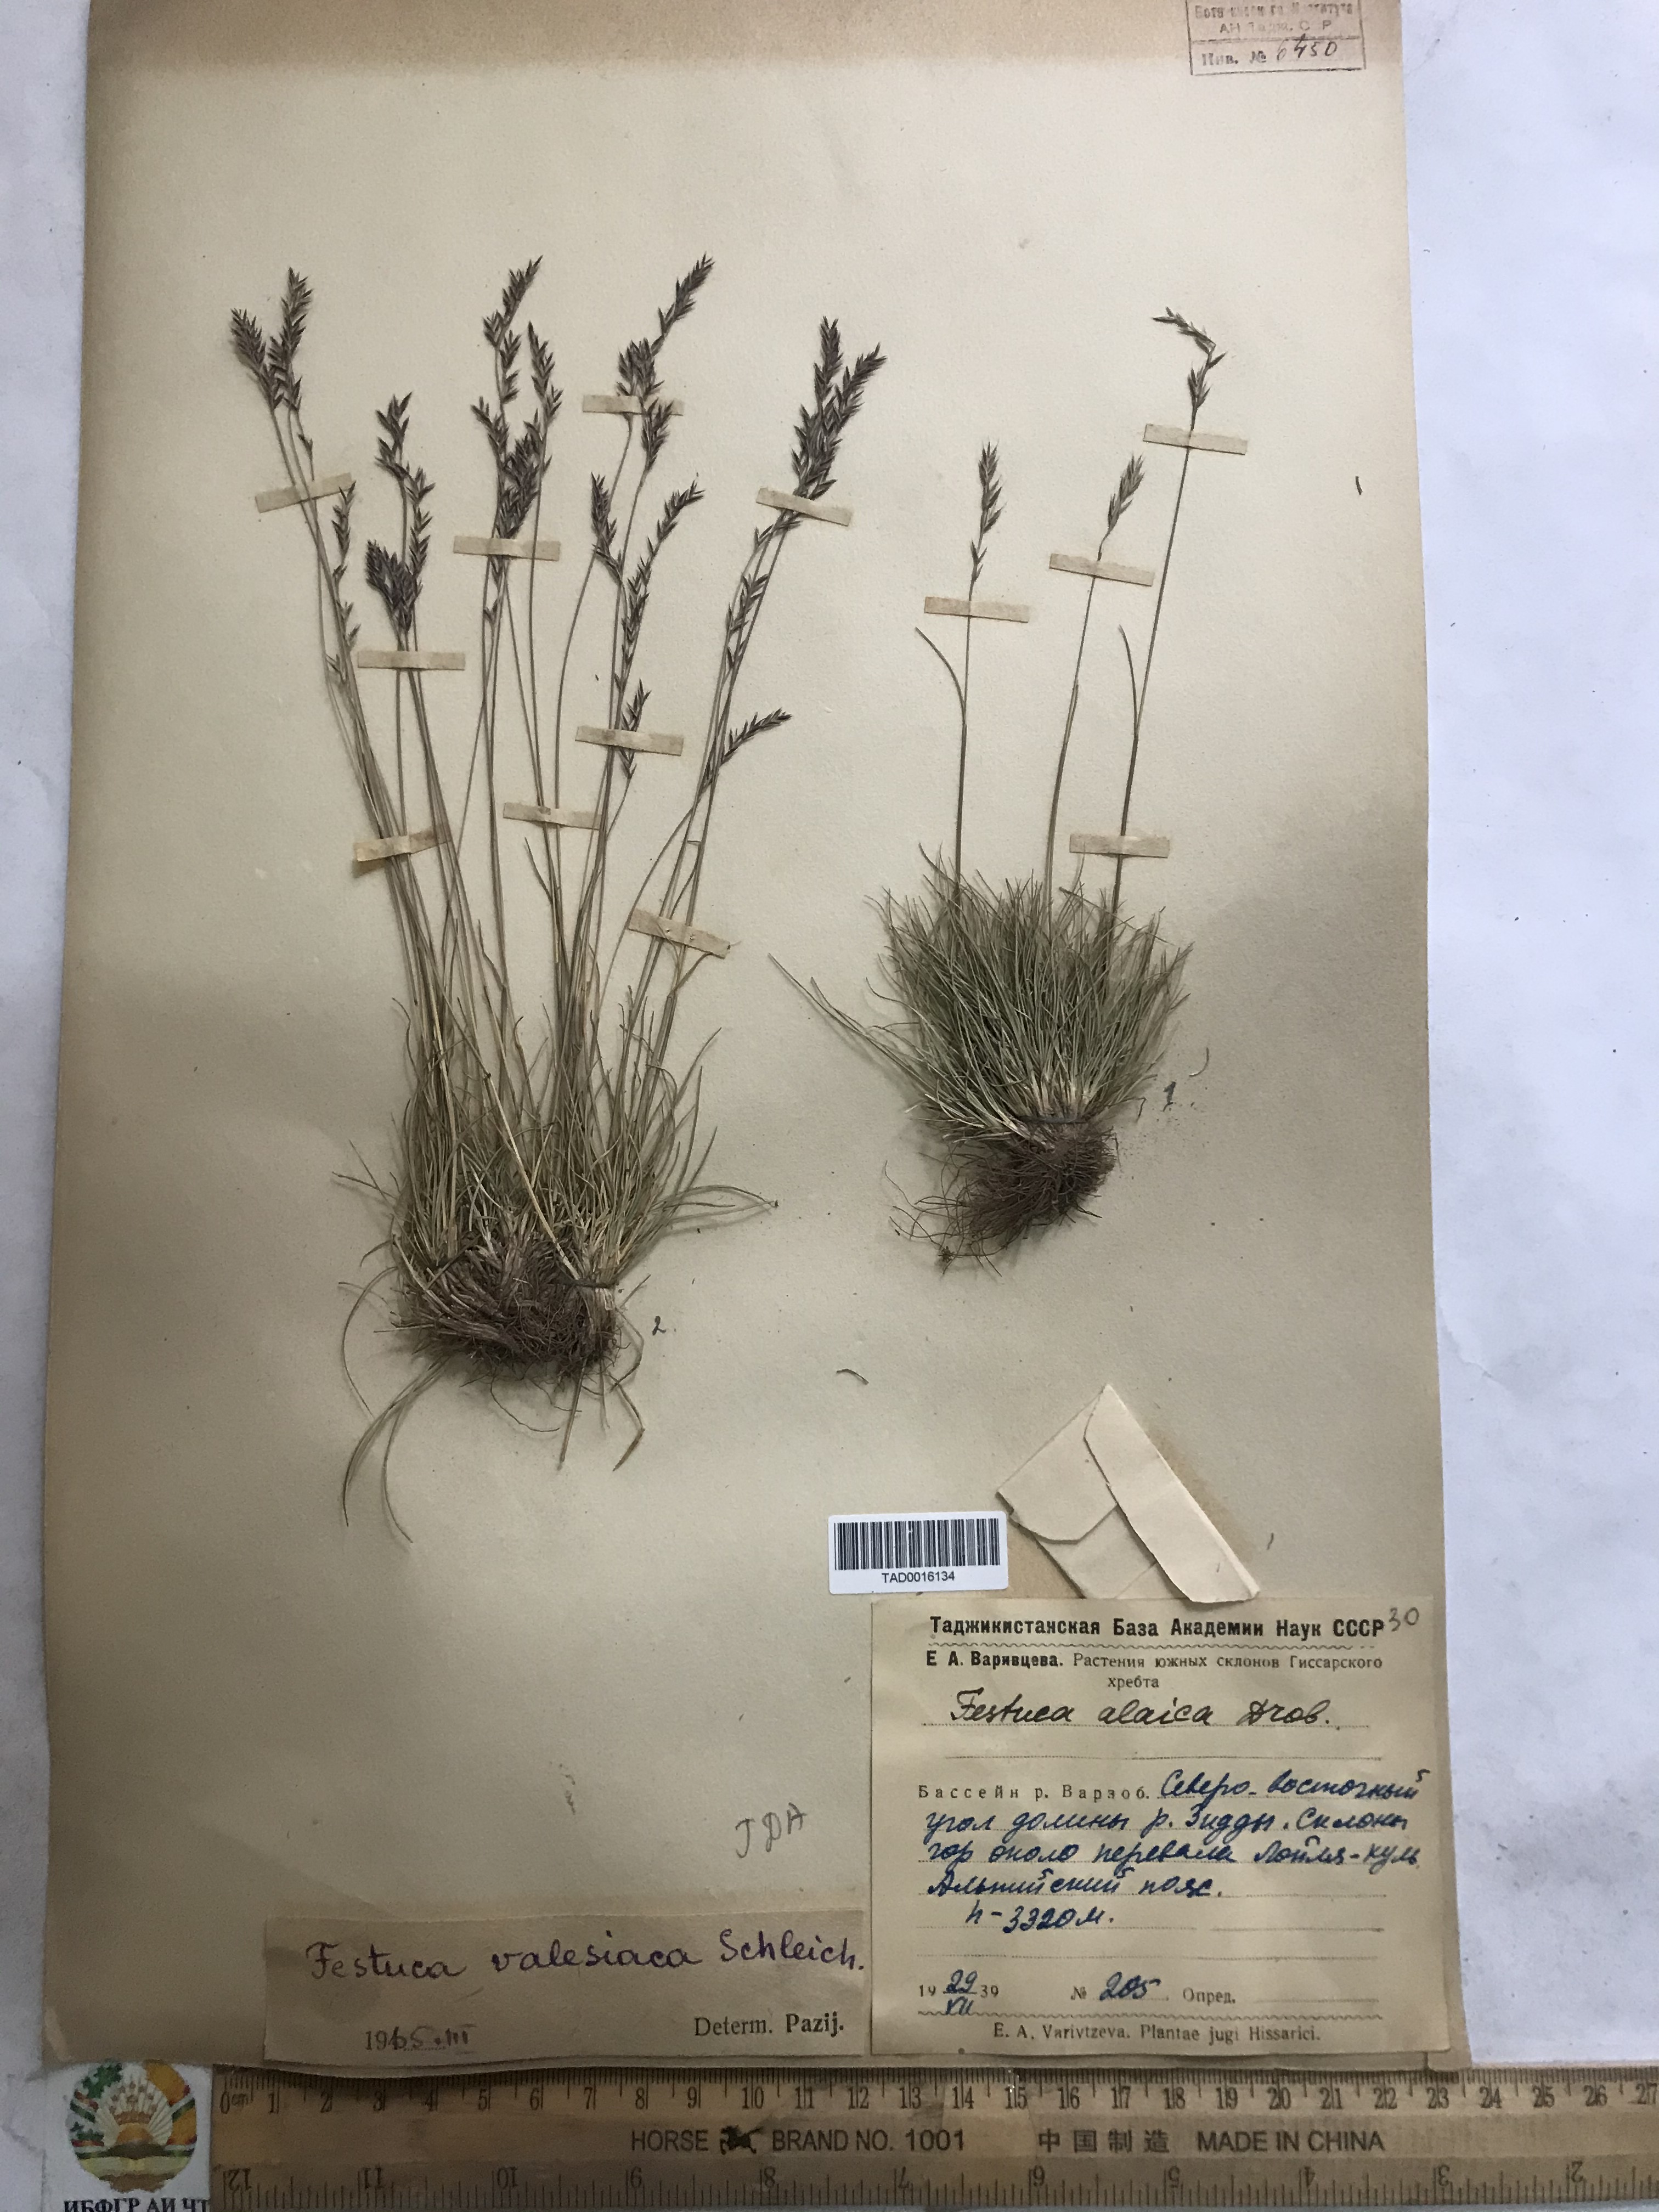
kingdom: Plantae
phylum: Tracheophyta
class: Liliopsida
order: Poales
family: Poaceae
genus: Festuca
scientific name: Festuca valesiaca
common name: Volga fescue
